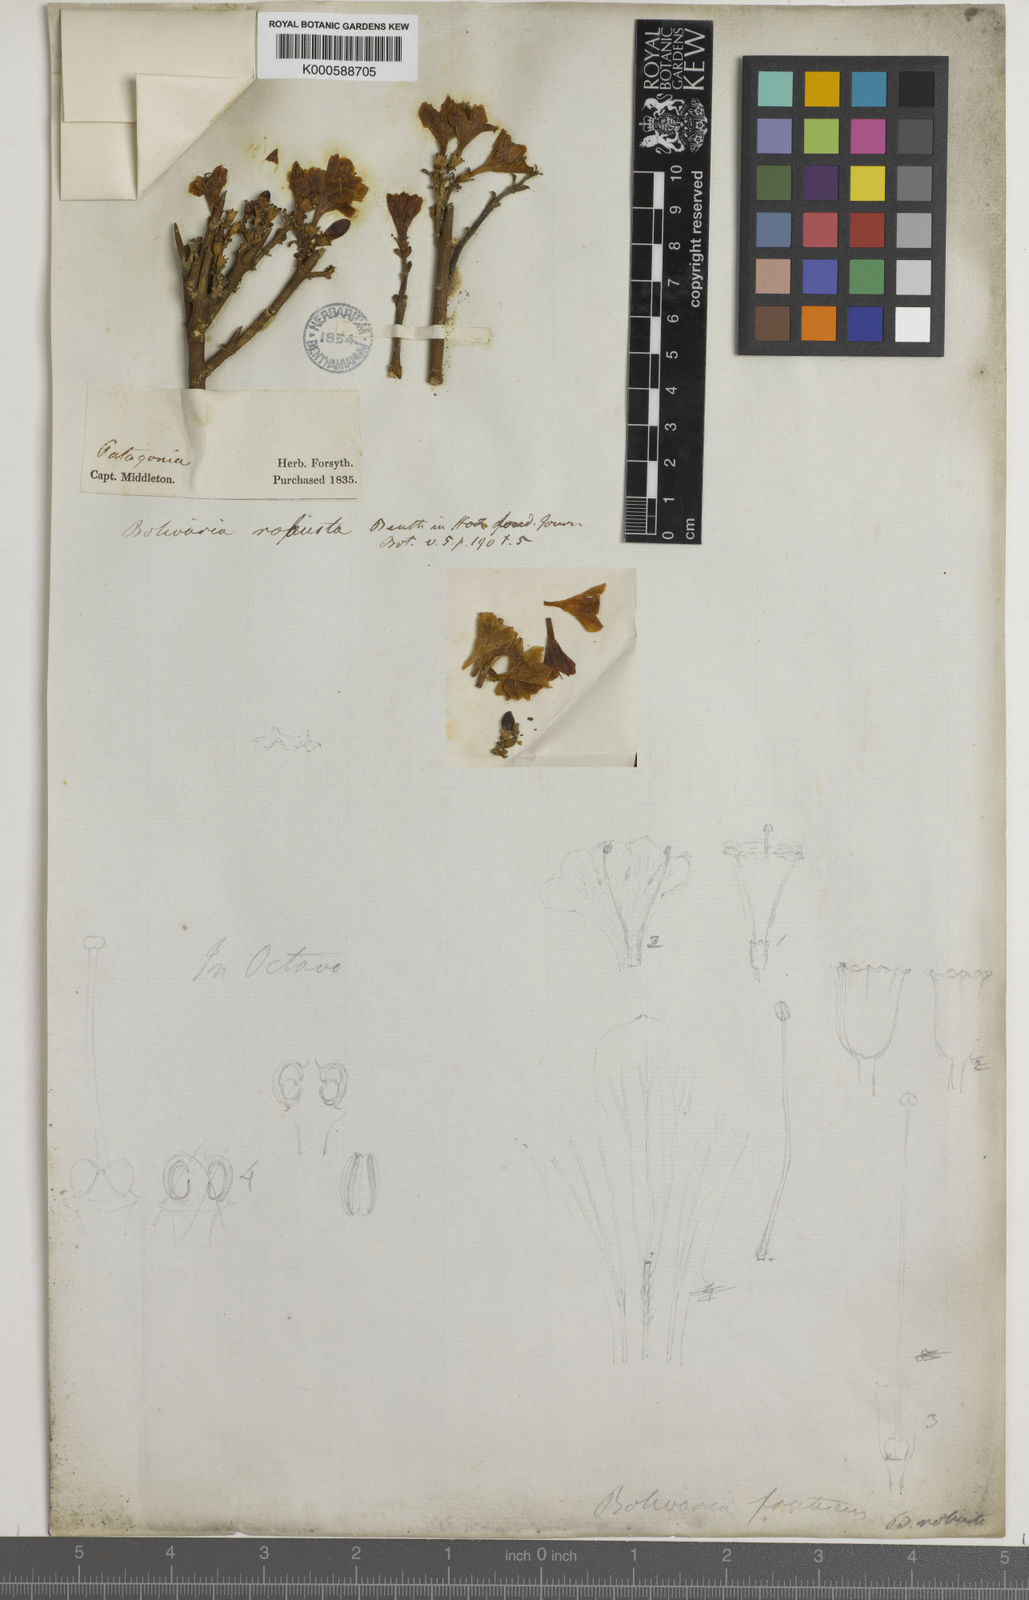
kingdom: Plantae
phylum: Tracheophyta
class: Magnoliopsida
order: Lamiales
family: Oleaceae
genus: Menodora
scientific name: Menodora robusta
